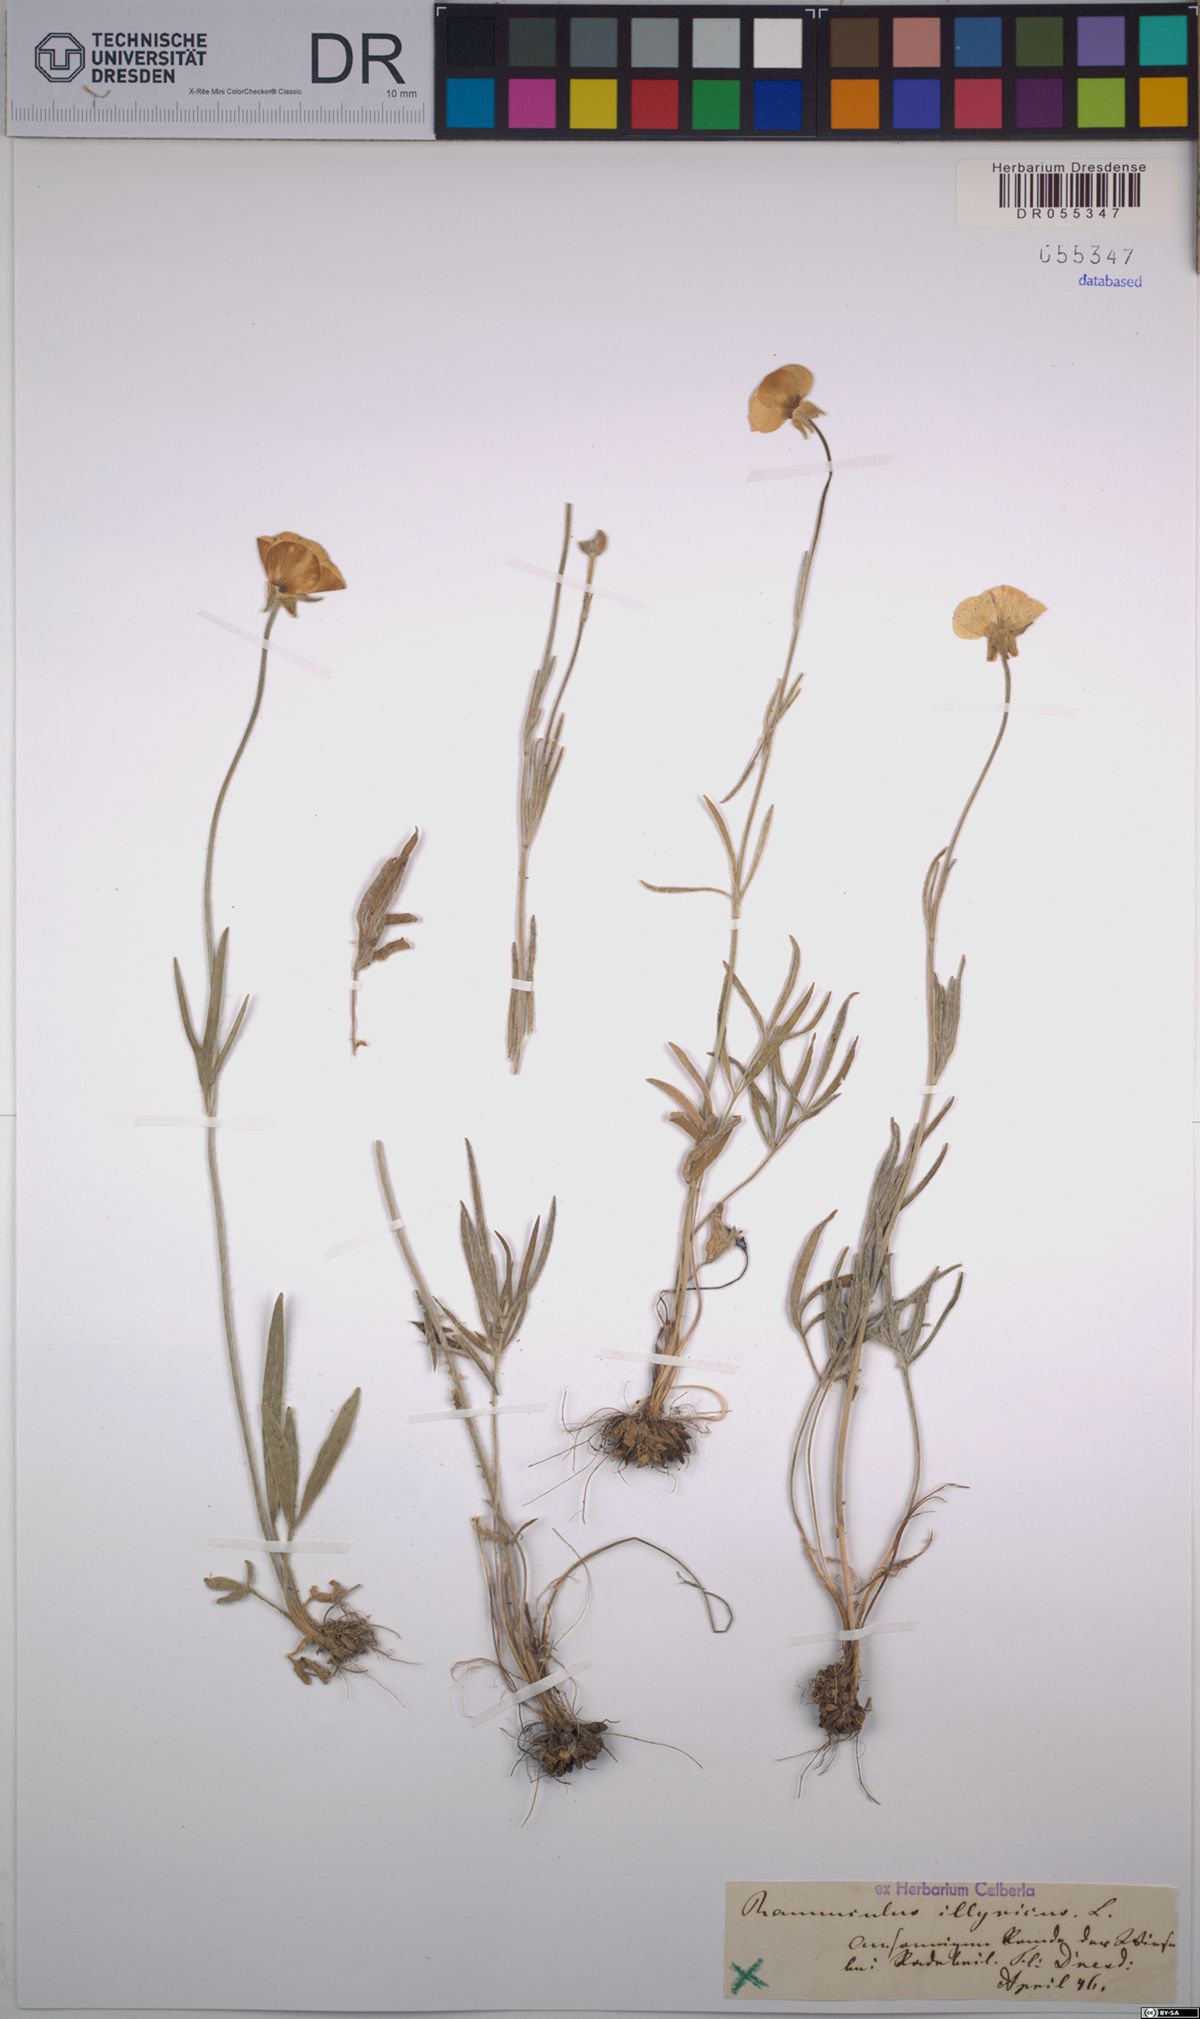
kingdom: Plantae
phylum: Tracheophyta
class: Magnoliopsida
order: Ranunculales
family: Ranunculaceae
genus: Ranunculus
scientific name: Ranunculus illyricus
